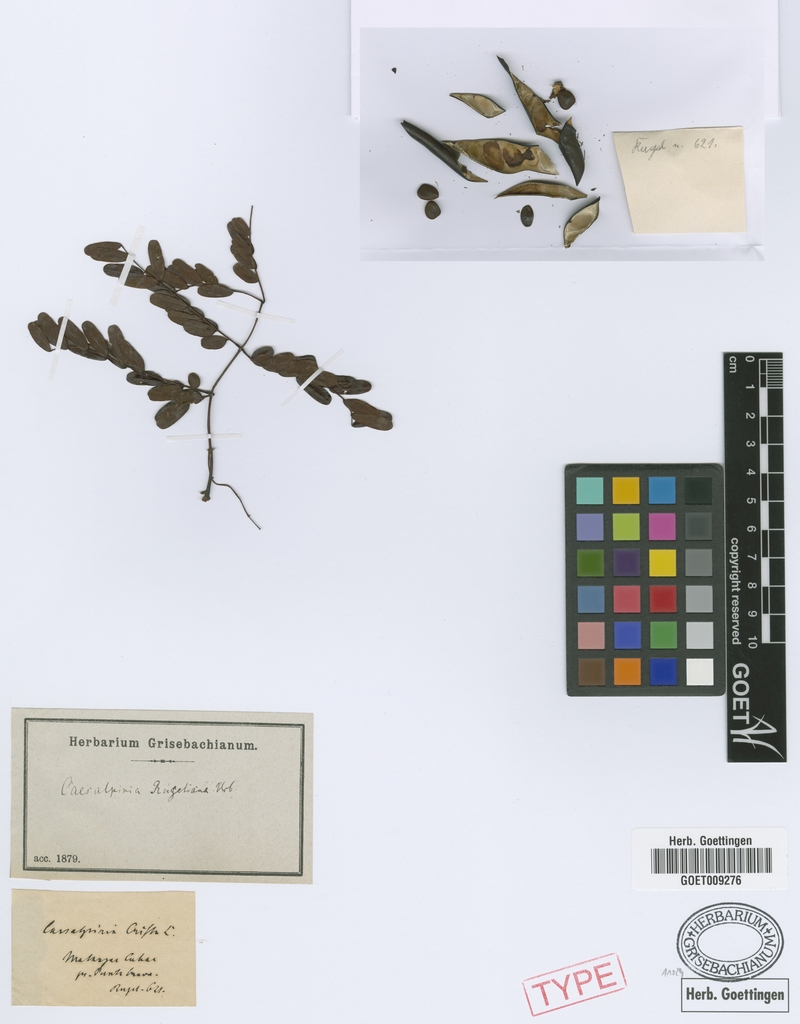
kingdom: Plantae
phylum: Tracheophyta
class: Magnoliopsida
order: Fabales
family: Fabaceae
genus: Caesalpinia
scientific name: Caesalpinia bahamensis
